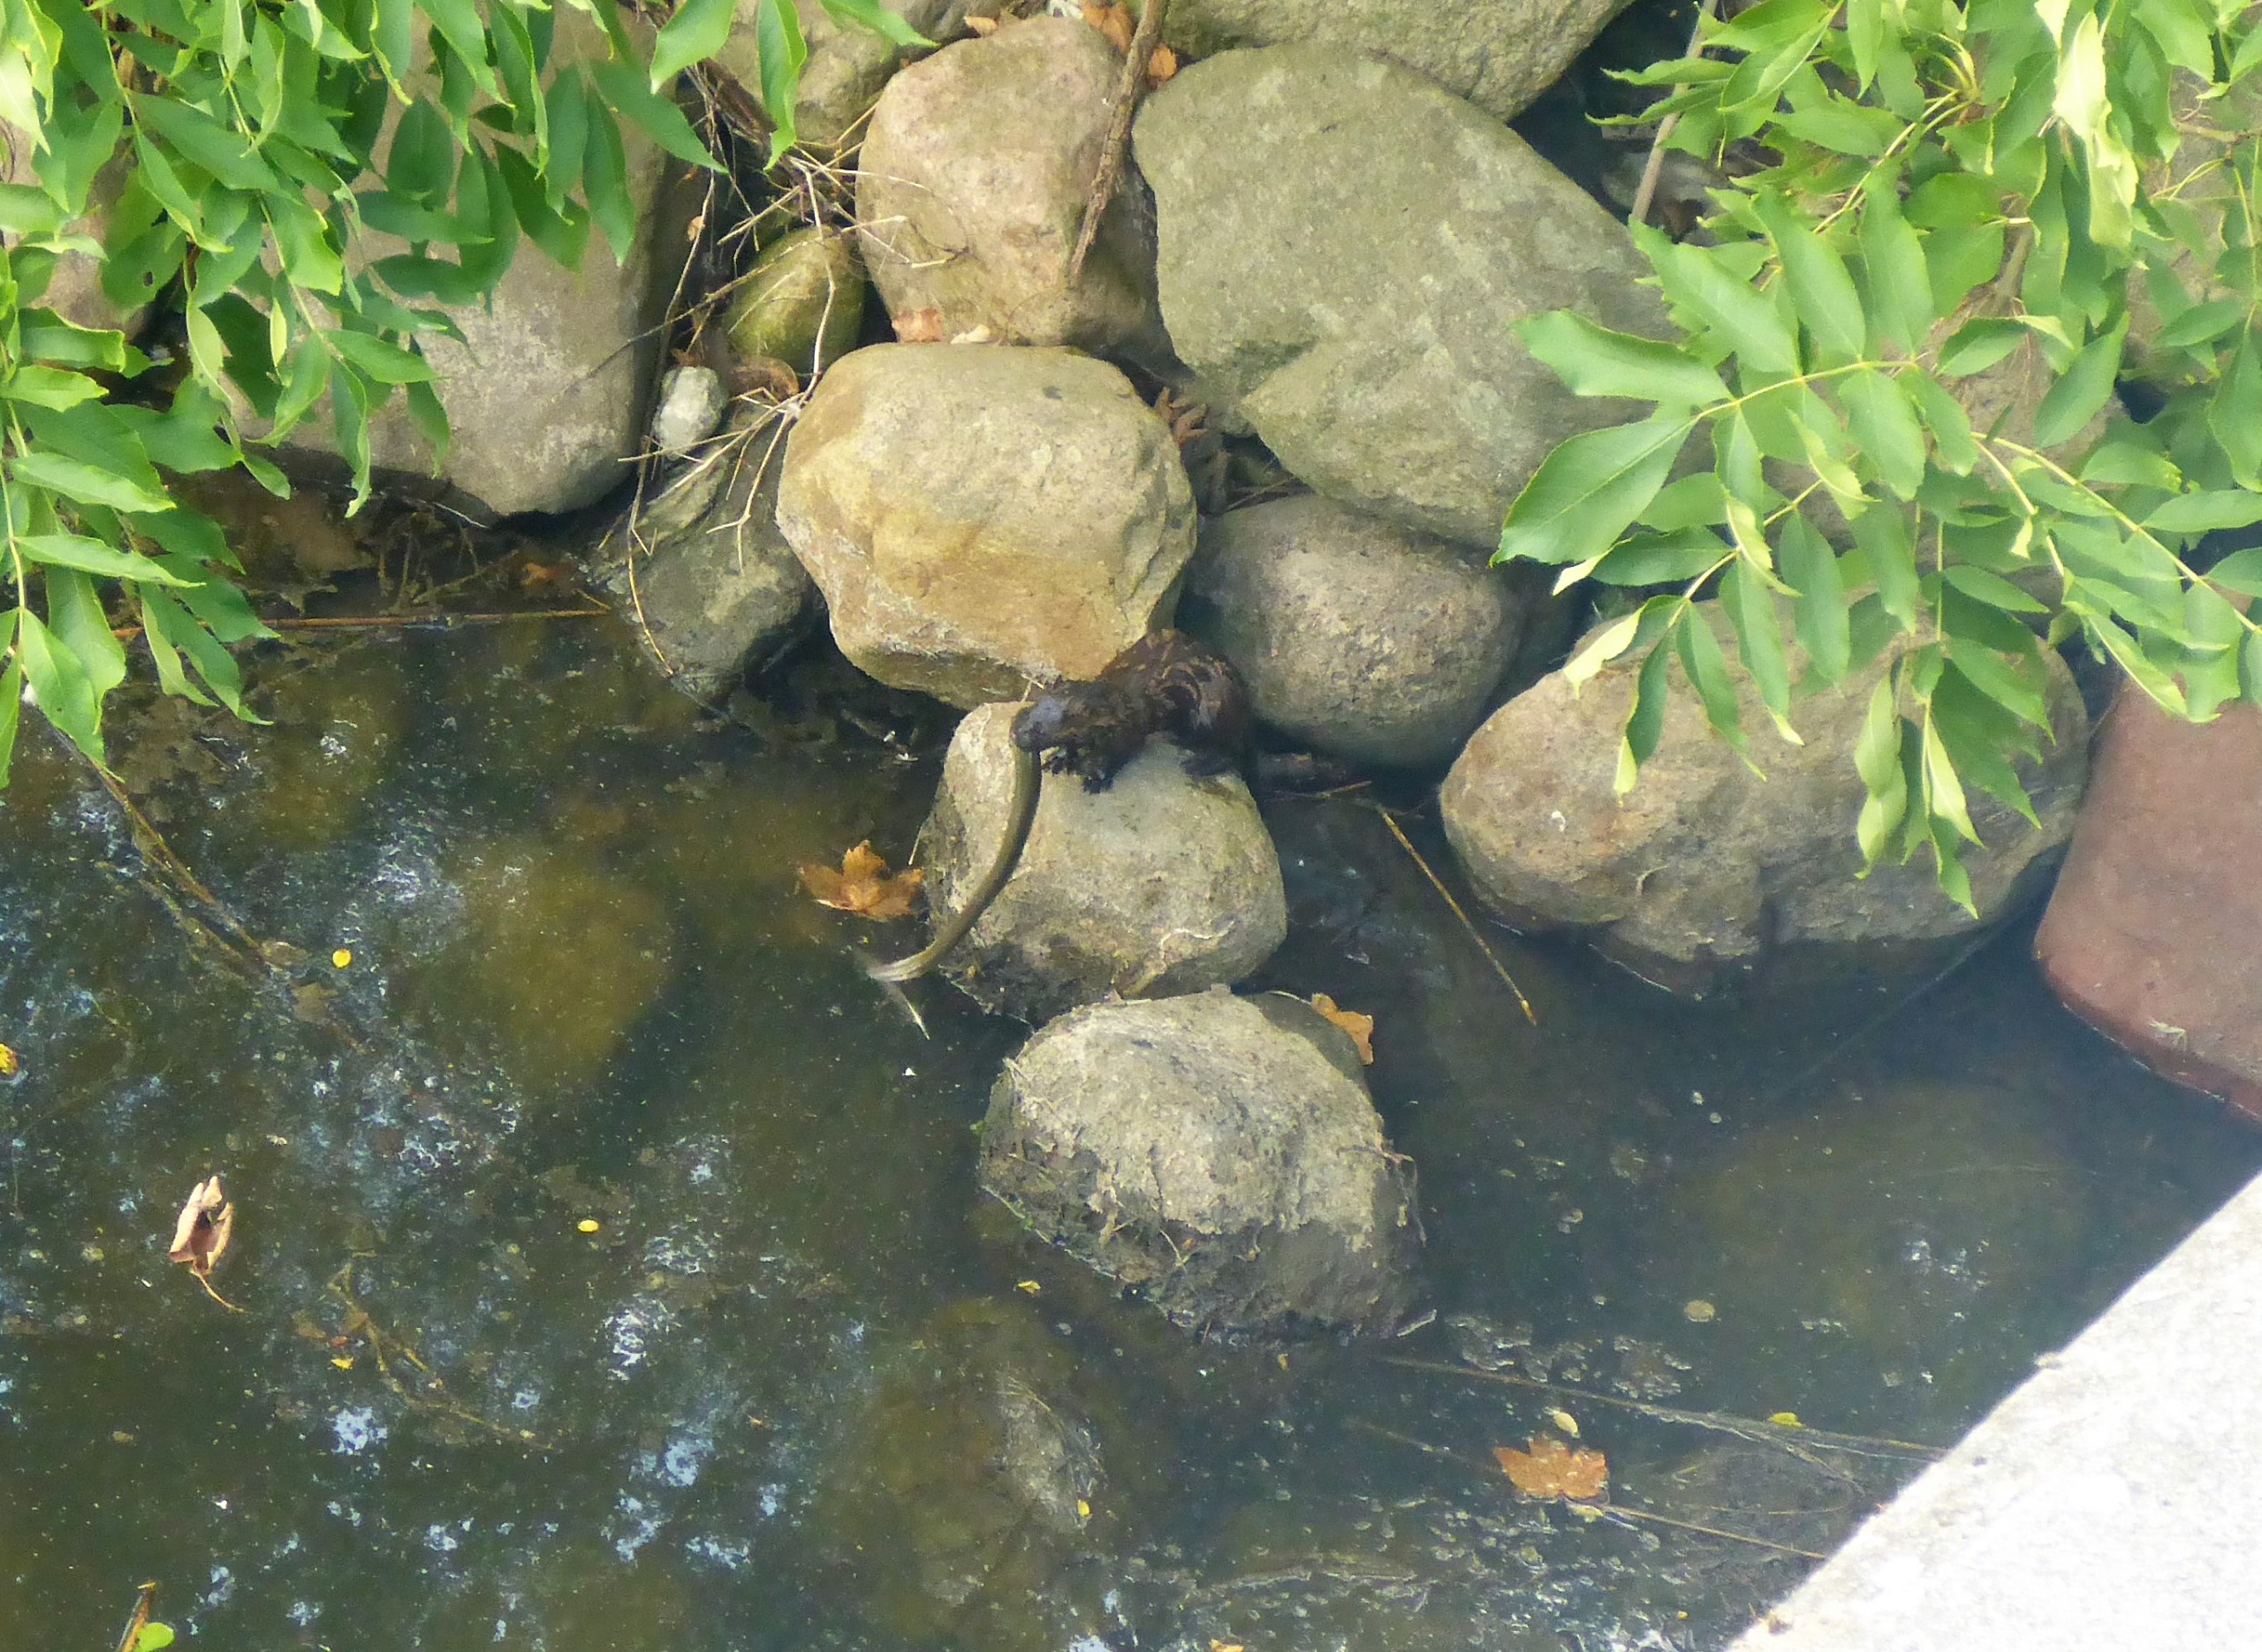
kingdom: Animalia
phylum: Chordata
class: Mammalia
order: Carnivora
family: Mustelidae
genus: Mustela
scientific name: Mustela vison
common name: Mink
